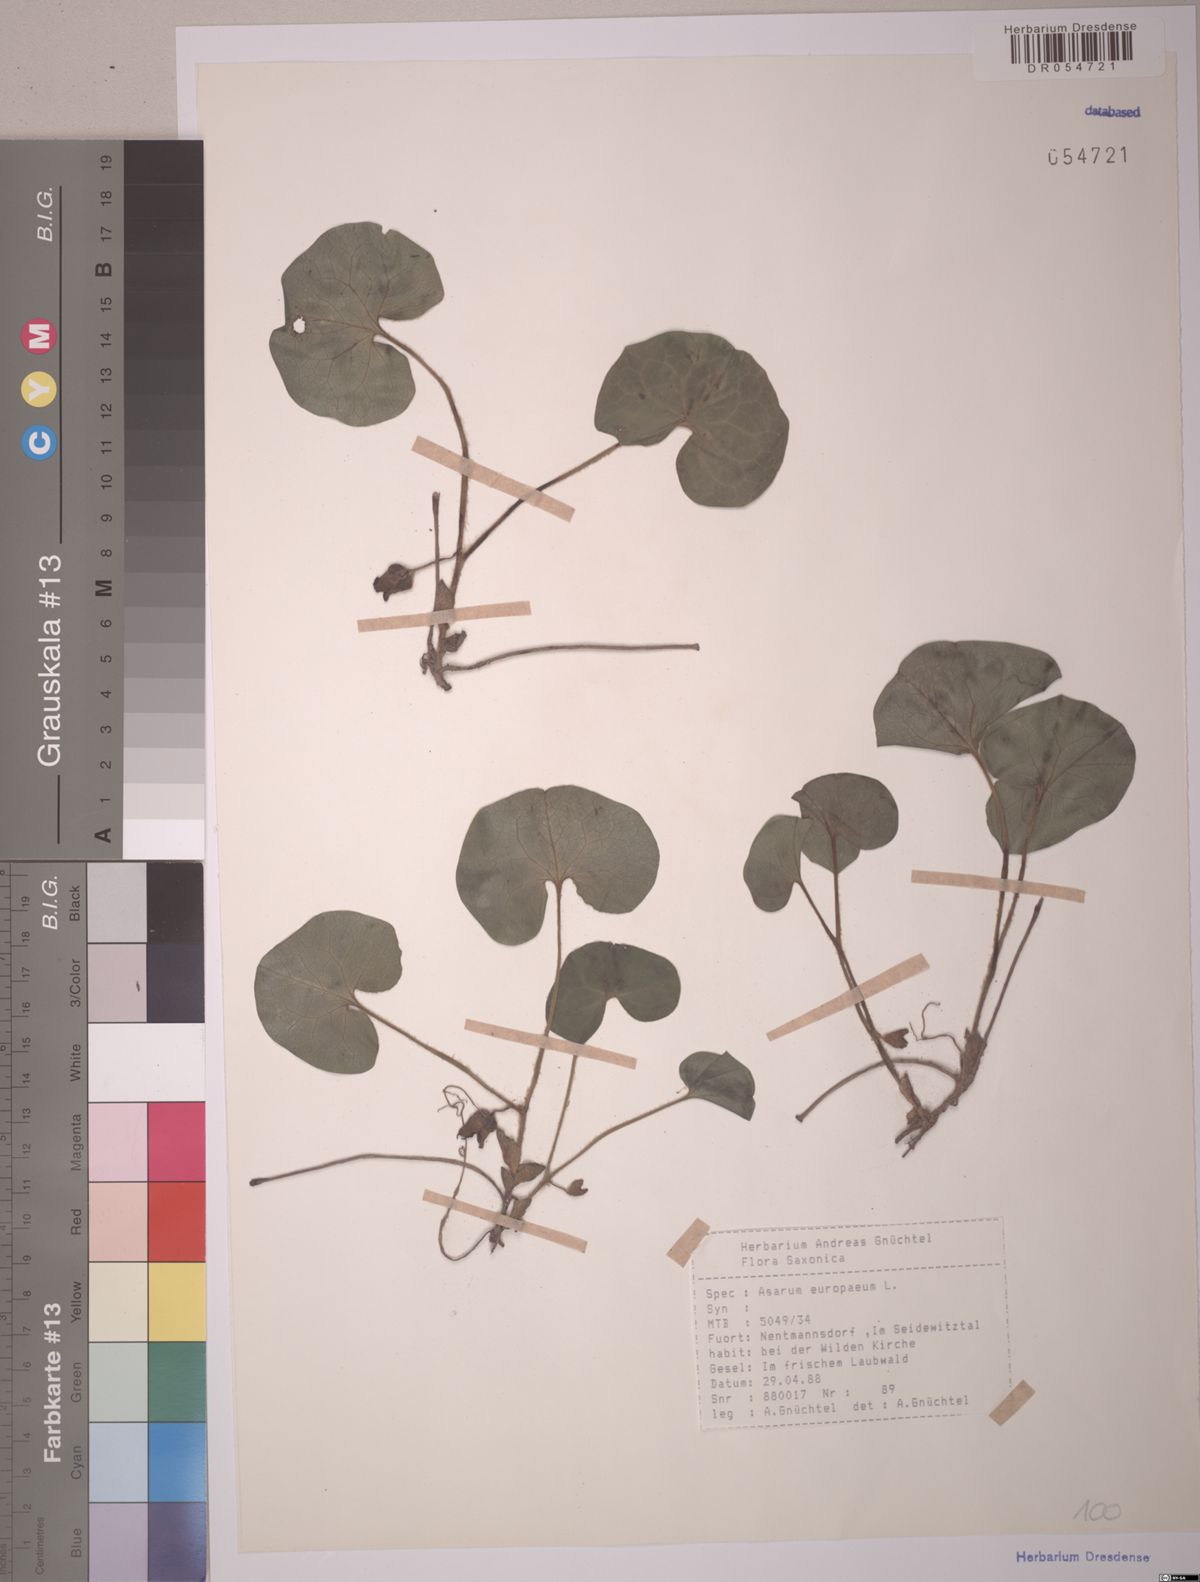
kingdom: Plantae
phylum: Tracheophyta
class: Magnoliopsida
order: Piperales
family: Aristolochiaceae
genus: Asarum
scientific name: Asarum europaeum
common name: Asarabacca
